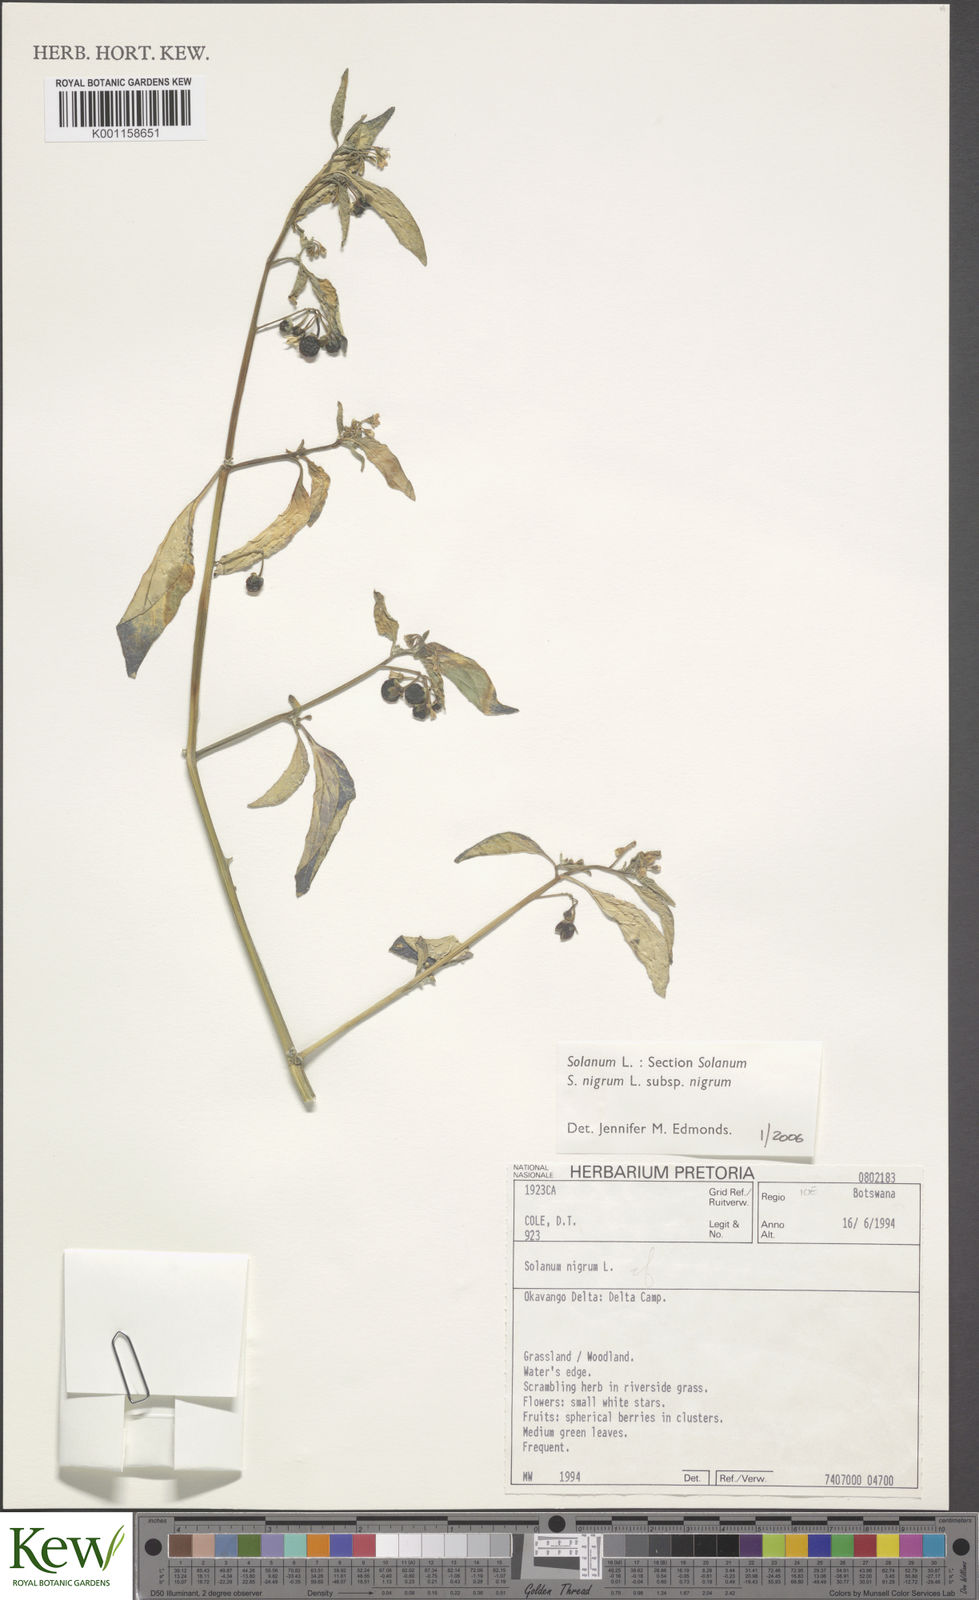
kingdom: Plantae
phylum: Tracheophyta
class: Magnoliopsida
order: Solanales
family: Solanaceae
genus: Solanum
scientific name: Solanum nigrum
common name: Black nightshade
